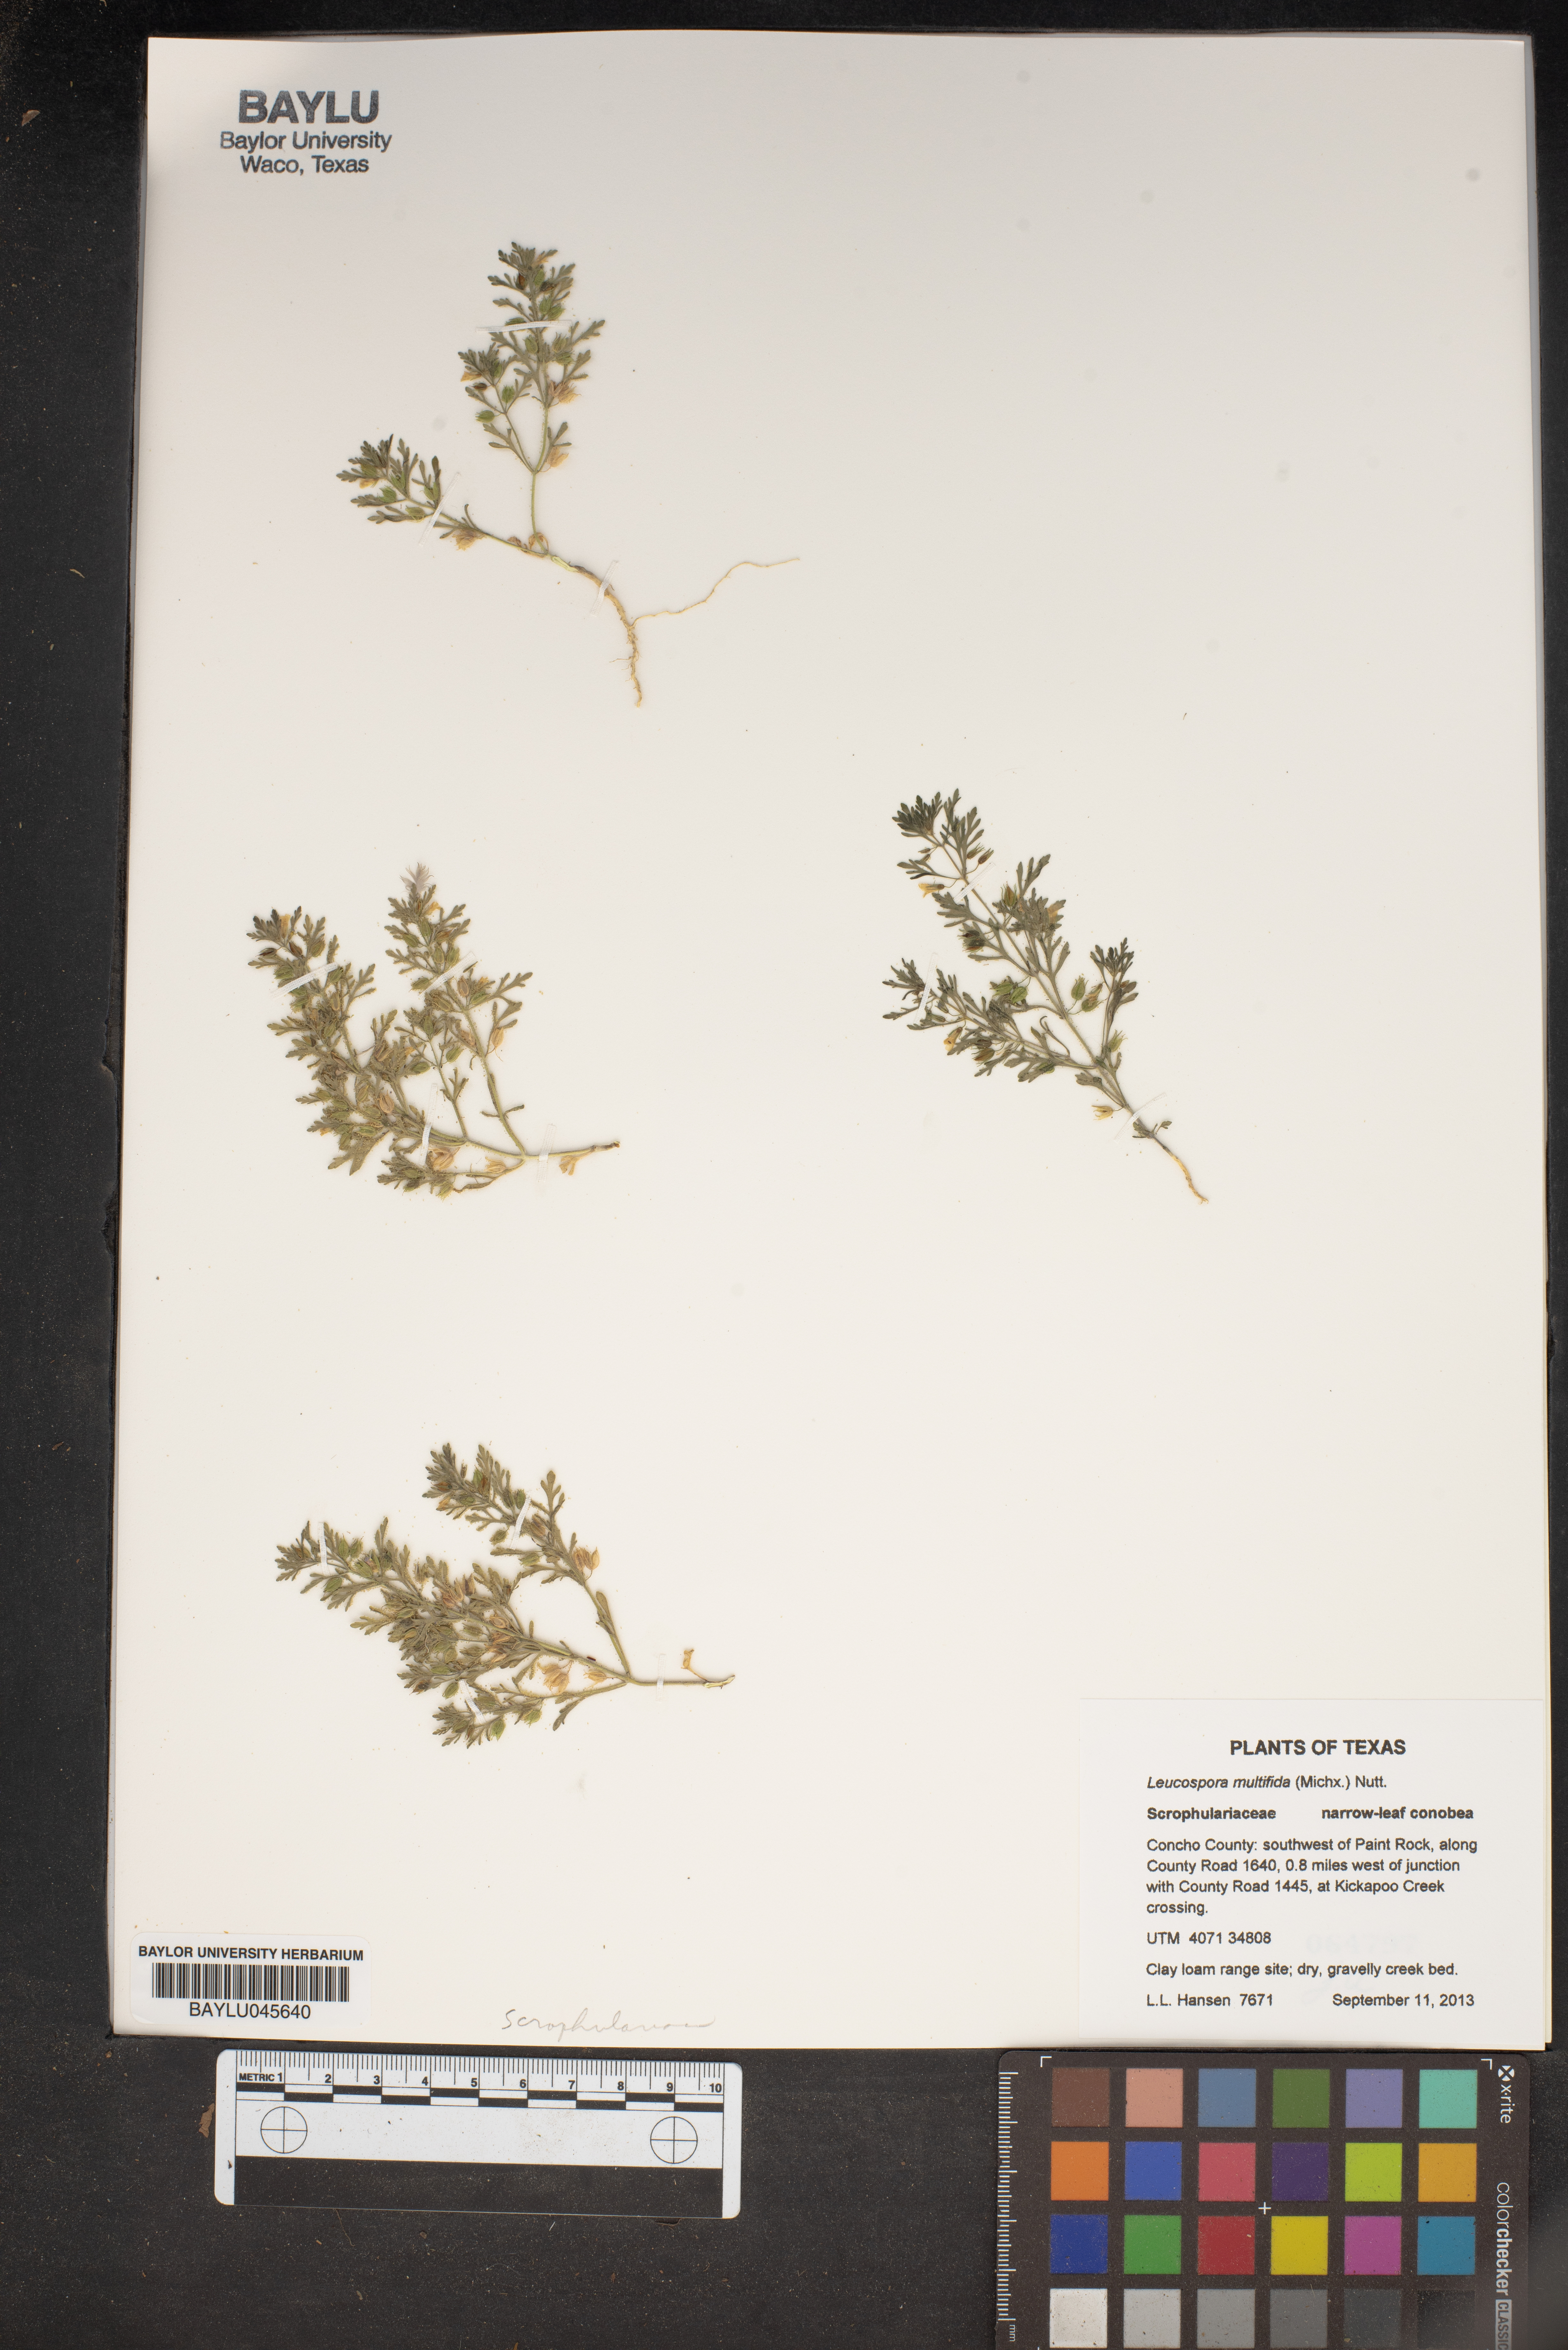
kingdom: Plantae
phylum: Tracheophyta
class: Magnoliopsida
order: Lamiales
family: Plantaginaceae
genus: Leucospora
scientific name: Leucospora multifida
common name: Narrow-leaf paleseed
